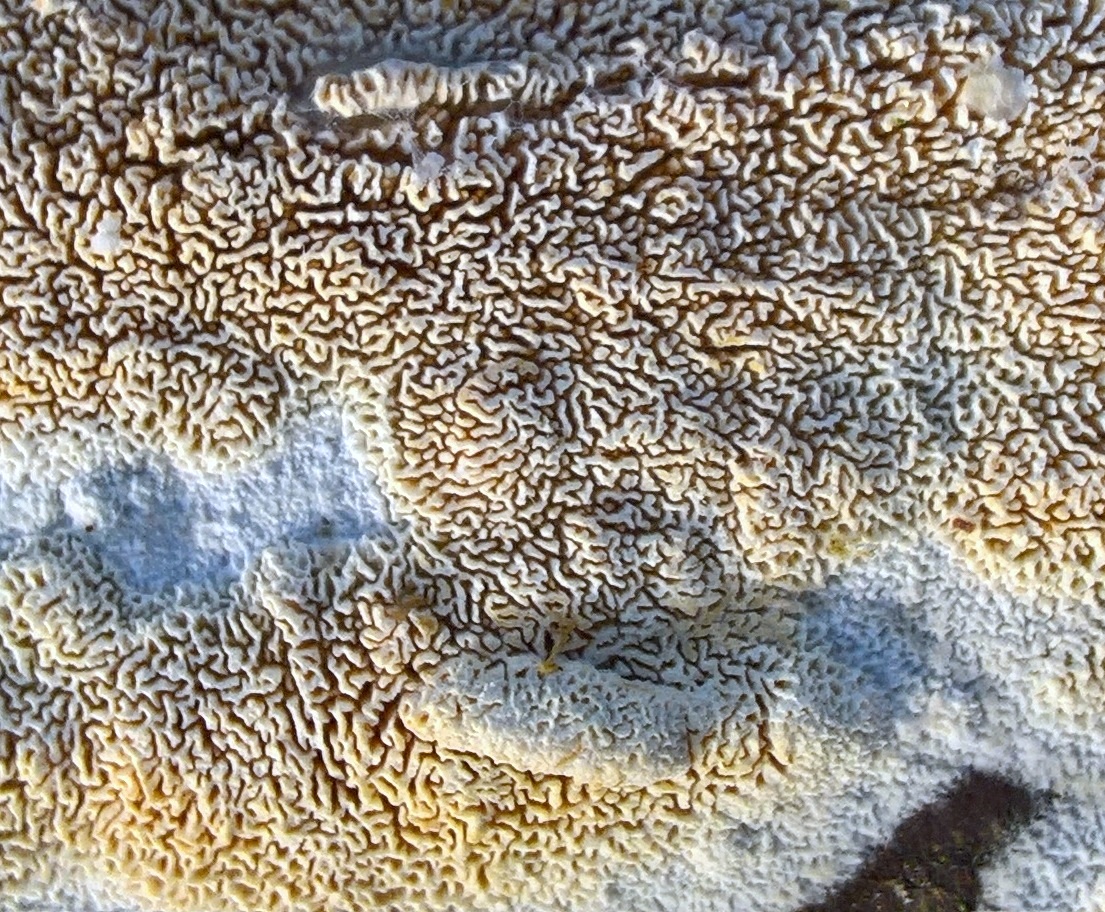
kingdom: Fungi
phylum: Basidiomycota
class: Agaricomycetes
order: Hymenochaetales
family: Schizoporaceae
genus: Xylodon
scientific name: Xylodon subtropicus
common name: labyrint-tandsvamp
